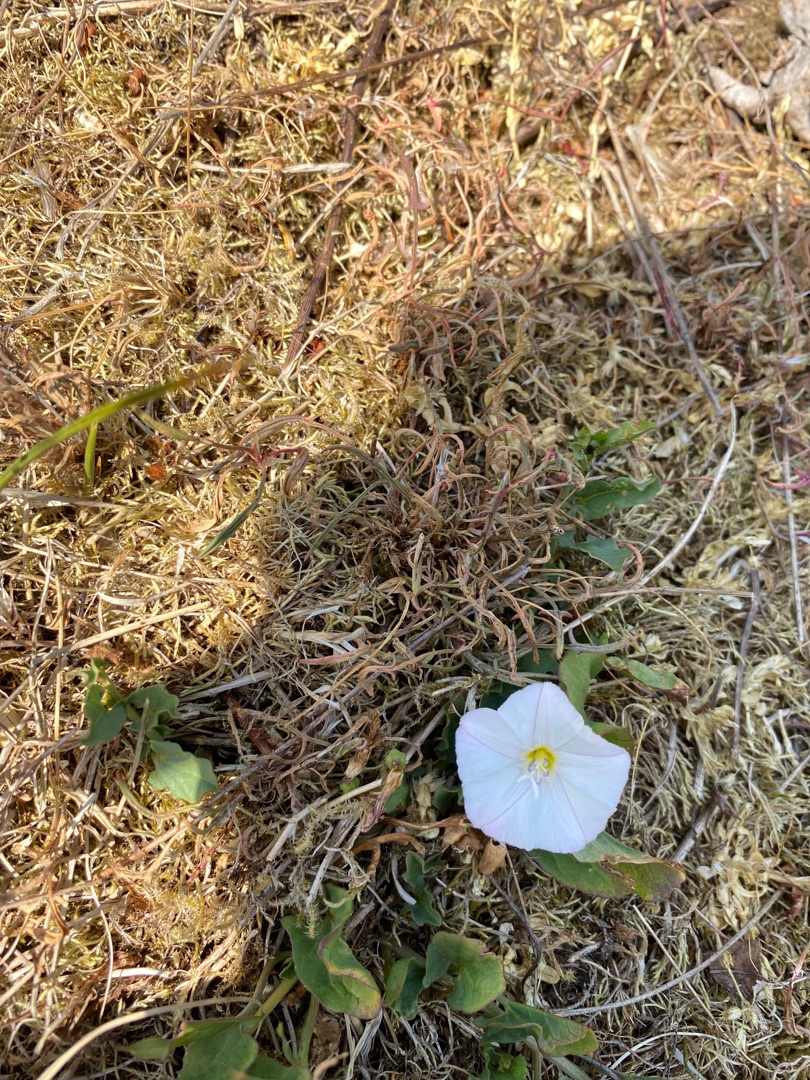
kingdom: Plantae
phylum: Tracheophyta
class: Magnoliopsida
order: Solanales
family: Convolvulaceae
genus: Convolvulus
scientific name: Convolvulus arvensis
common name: Ager-snerle
